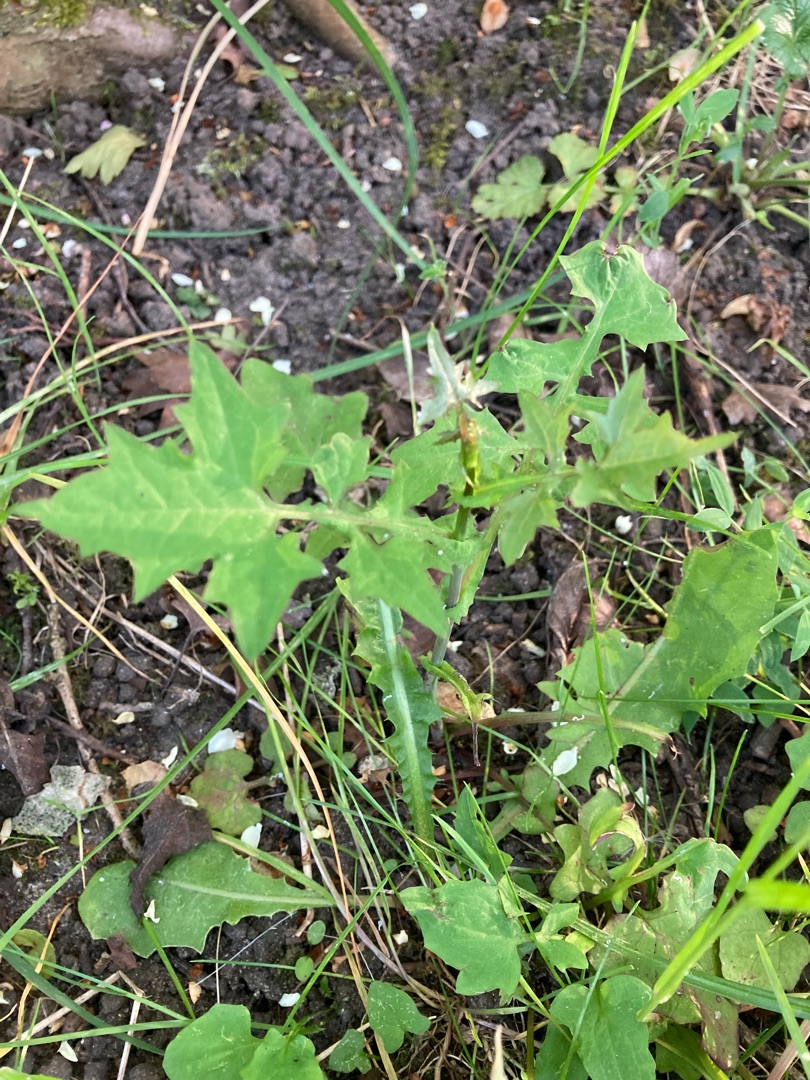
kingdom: Plantae
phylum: Tracheophyta
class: Magnoliopsida
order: Asterales
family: Asteraceae
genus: Mycelis
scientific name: Mycelis muralis
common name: Skov-salat
